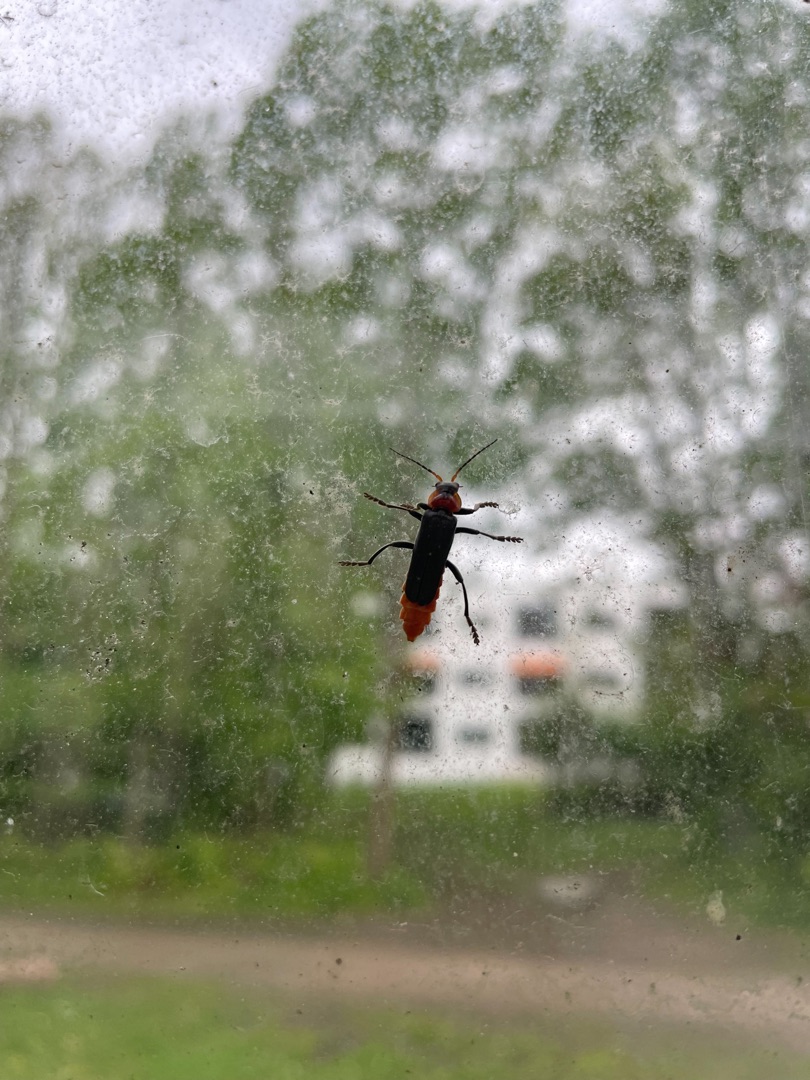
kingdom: Animalia
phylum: Arthropoda
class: Insecta
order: Coleoptera
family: Cantharidae
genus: Cantharis
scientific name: Cantharis fusca
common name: Stor blødvinge
